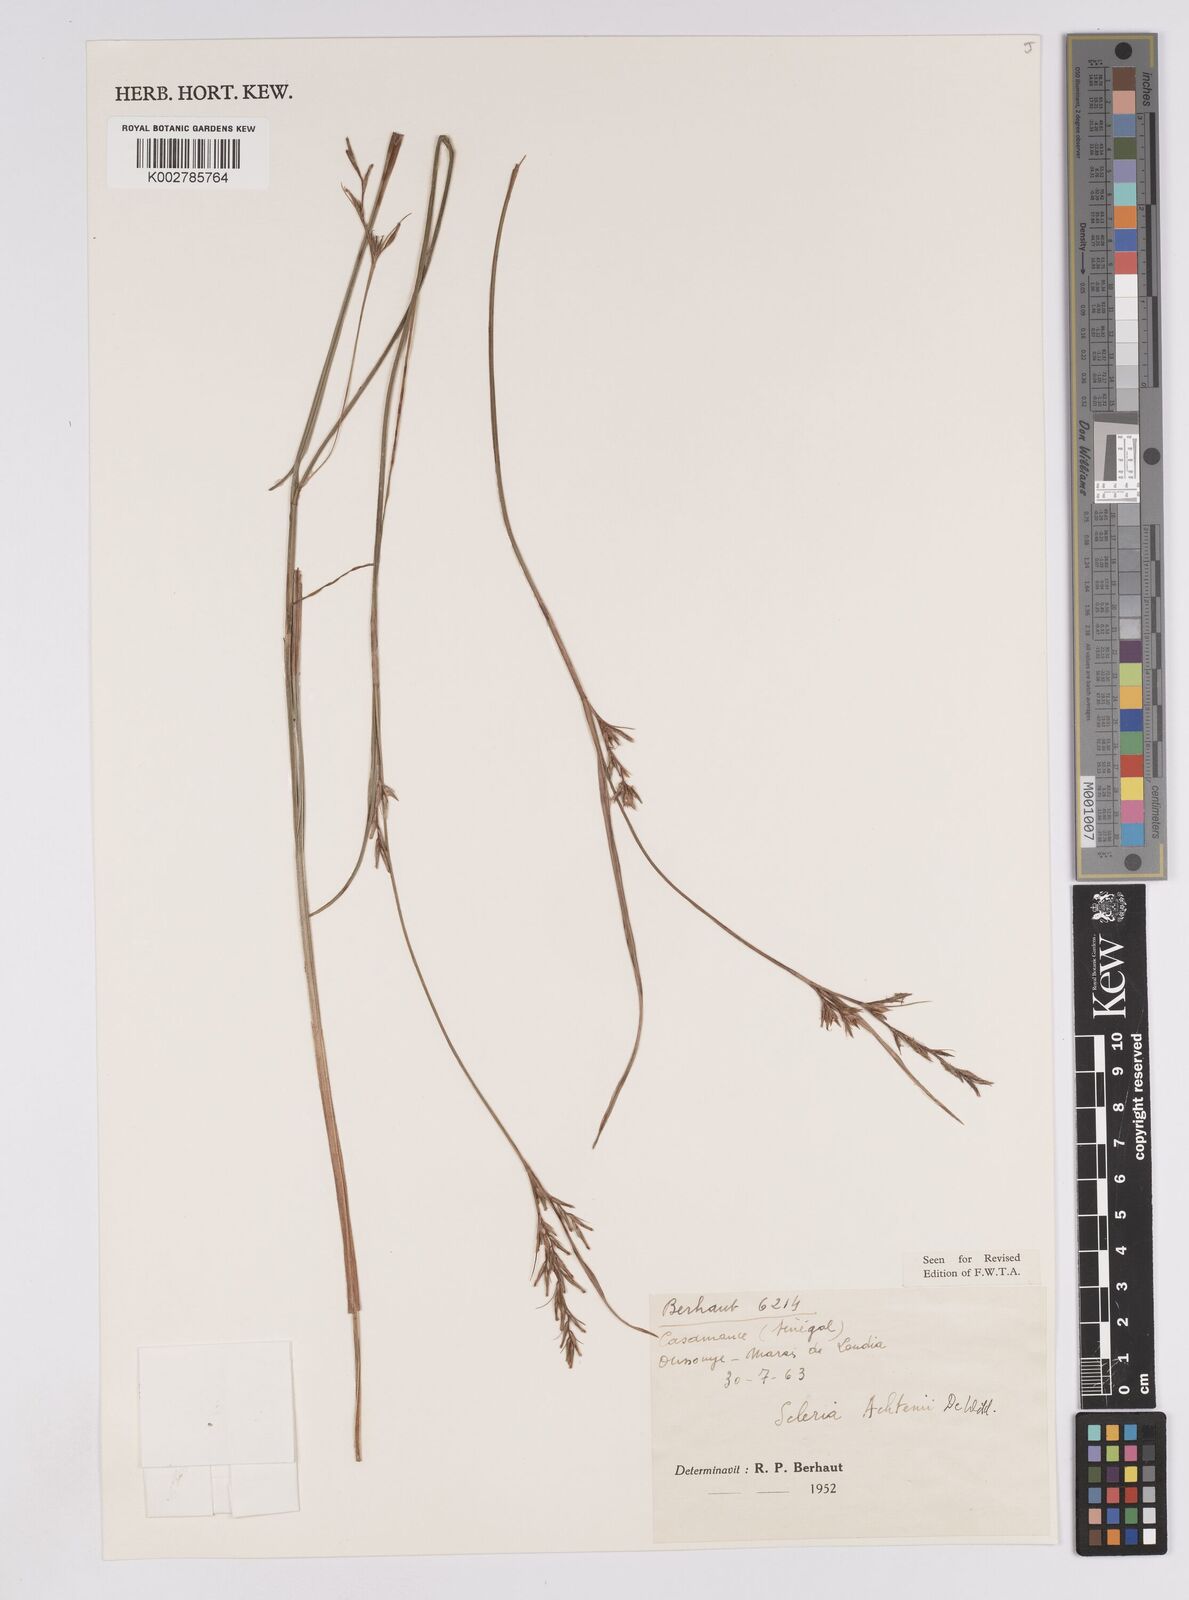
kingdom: Plantae
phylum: Tracheophyta
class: Liliopsida
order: Poales
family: Cyperaceae
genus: Scleria
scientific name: Scleria achtenii
